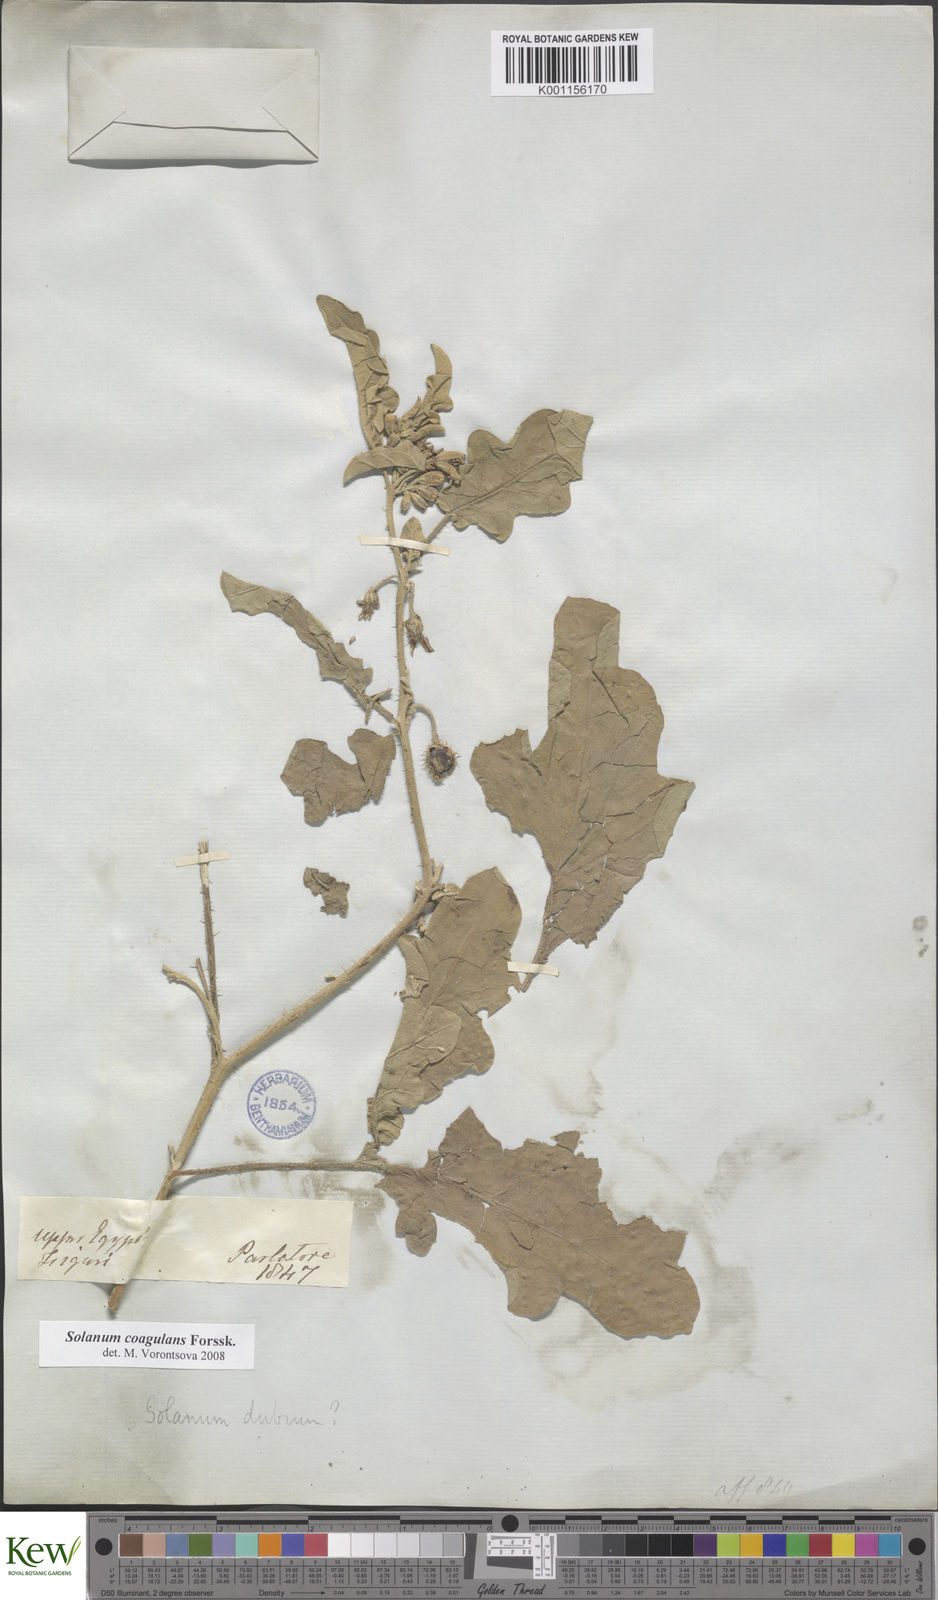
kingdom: Plantae
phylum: Tracheophyta
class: Magnoliopsida
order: Solanales
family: Solanaceae
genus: Solanum
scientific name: Solanum coagulans
